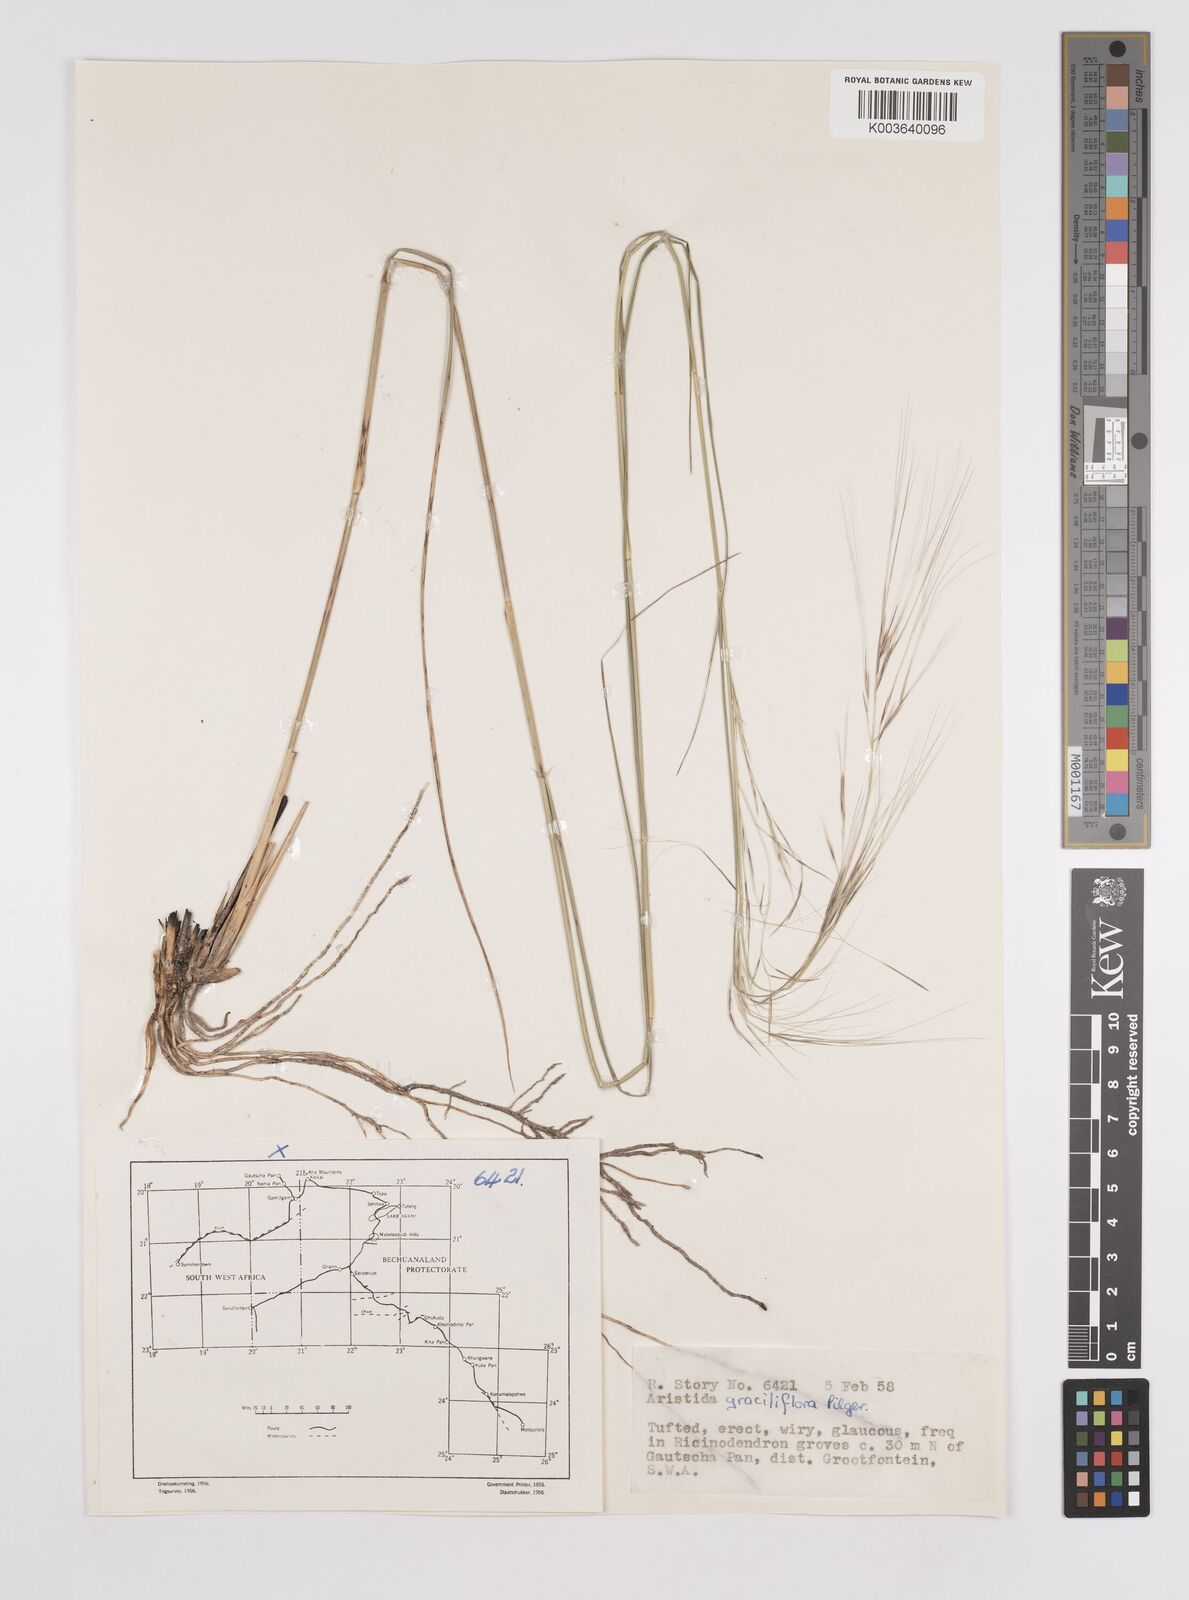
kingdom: Plantae
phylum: Tracheophyta
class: Liliopsida
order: Poales
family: Poaceae
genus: Aristida
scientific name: Aristida stipitata
